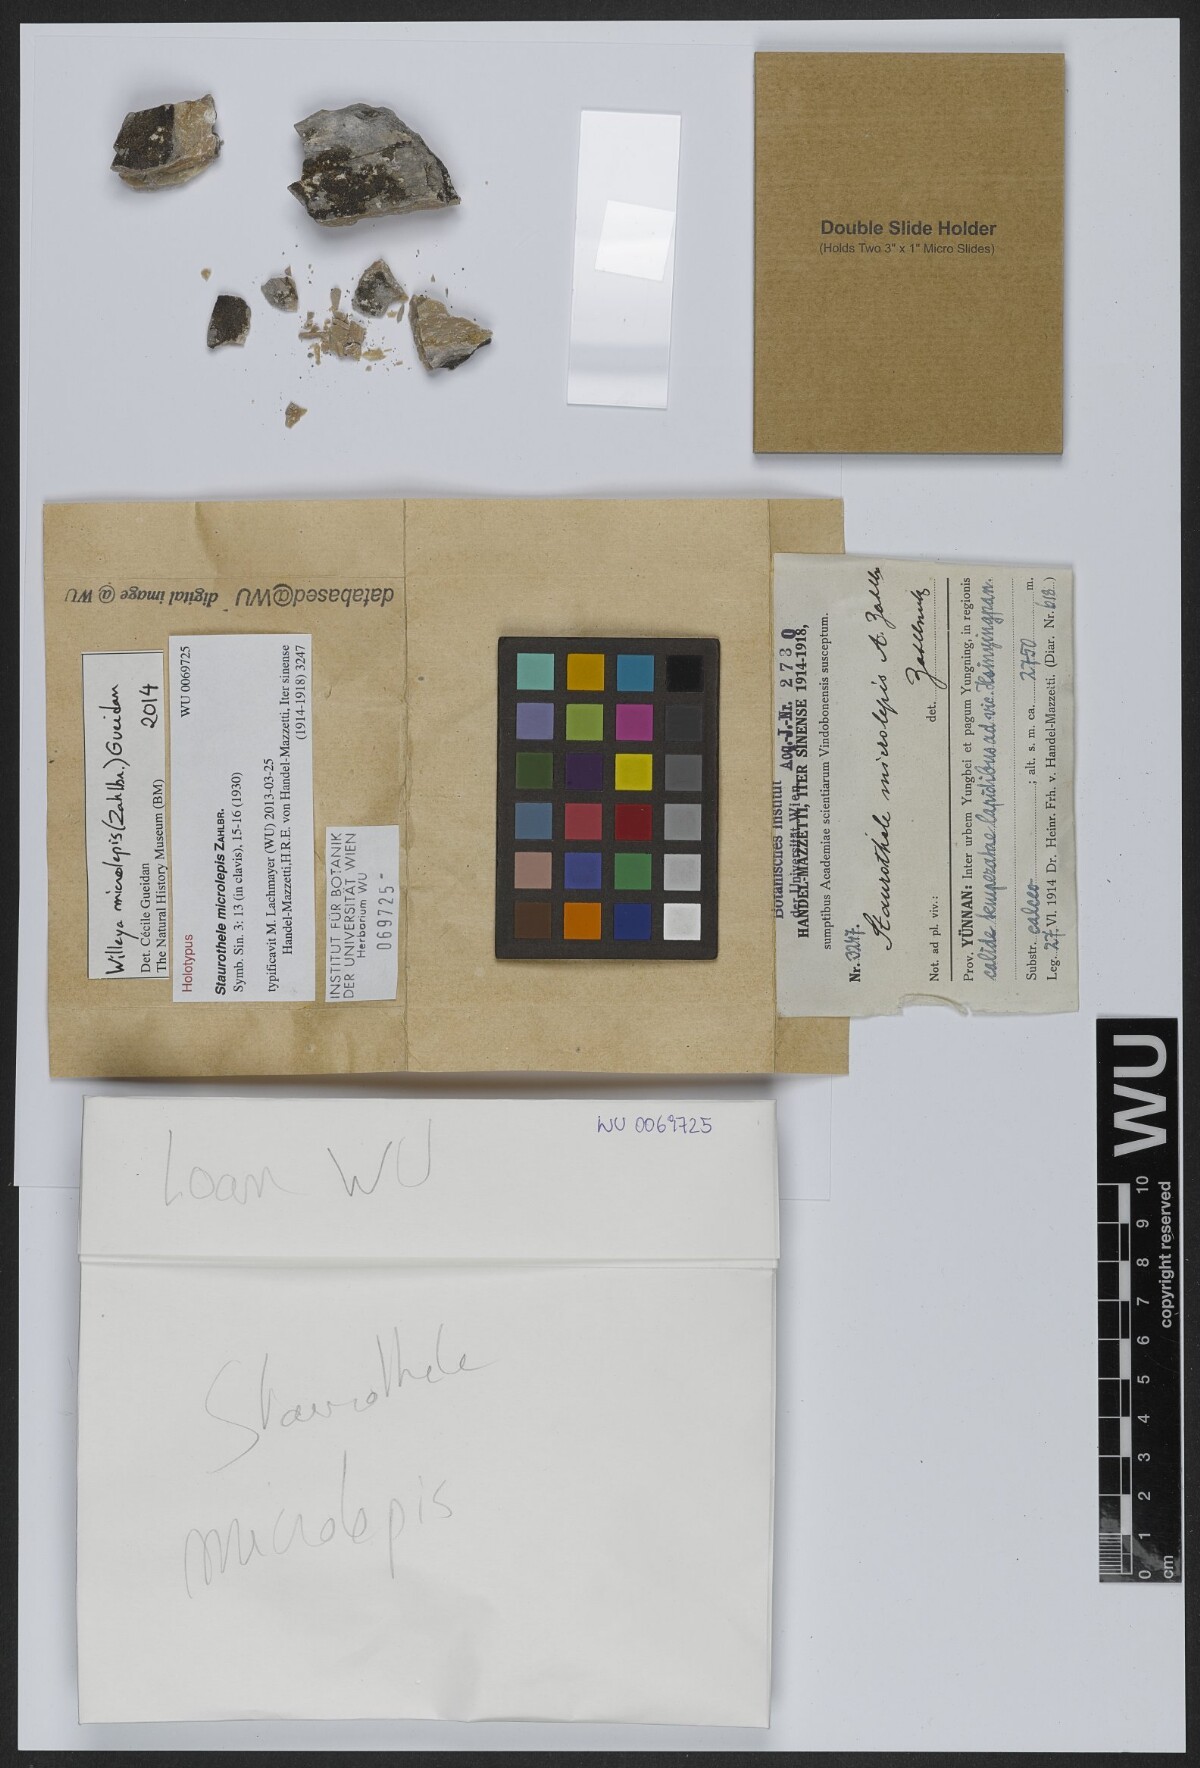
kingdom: Fungi
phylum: Ascomycota
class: Eurotiomycetes
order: Verrucariales
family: Verrucariaceae
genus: Willeya
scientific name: Willeya microlepis
